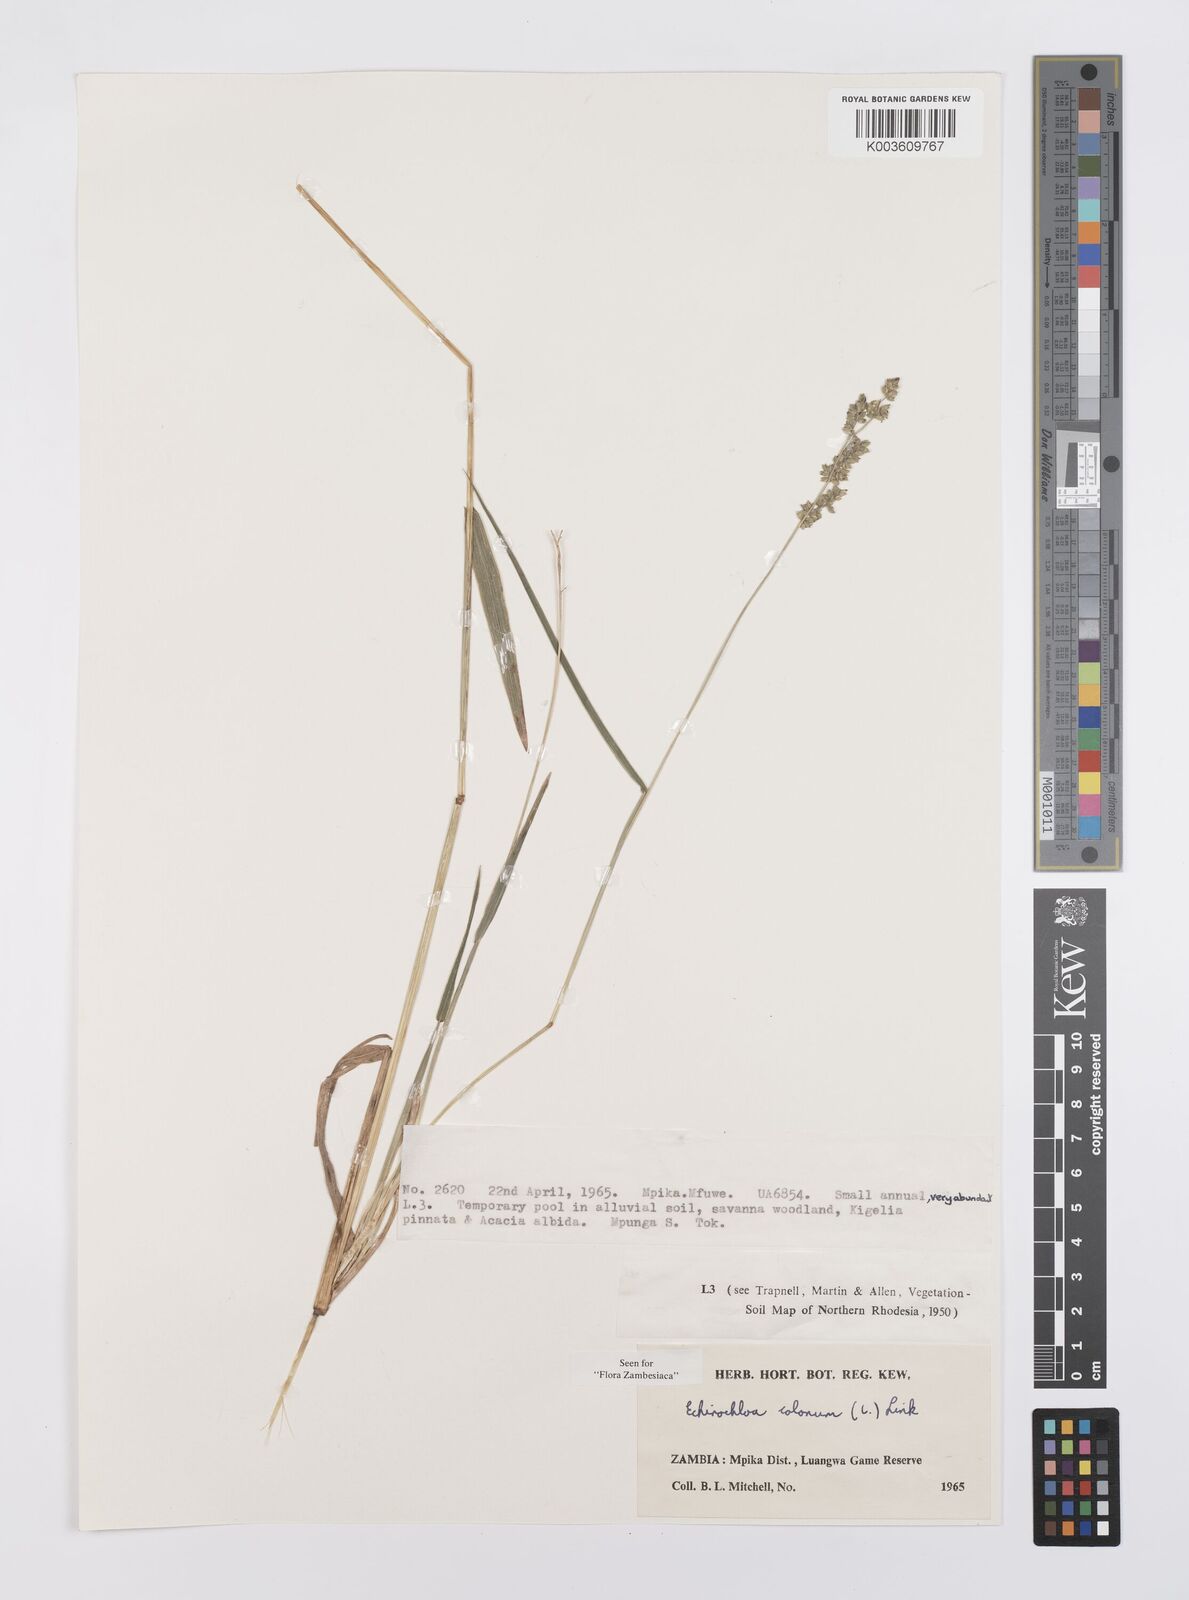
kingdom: Plantae
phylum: Tracheophyta
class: Liliopsida
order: Poales
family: Poaceae
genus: Echinochloa
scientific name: Echinochloa colonum
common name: Jungle rice
